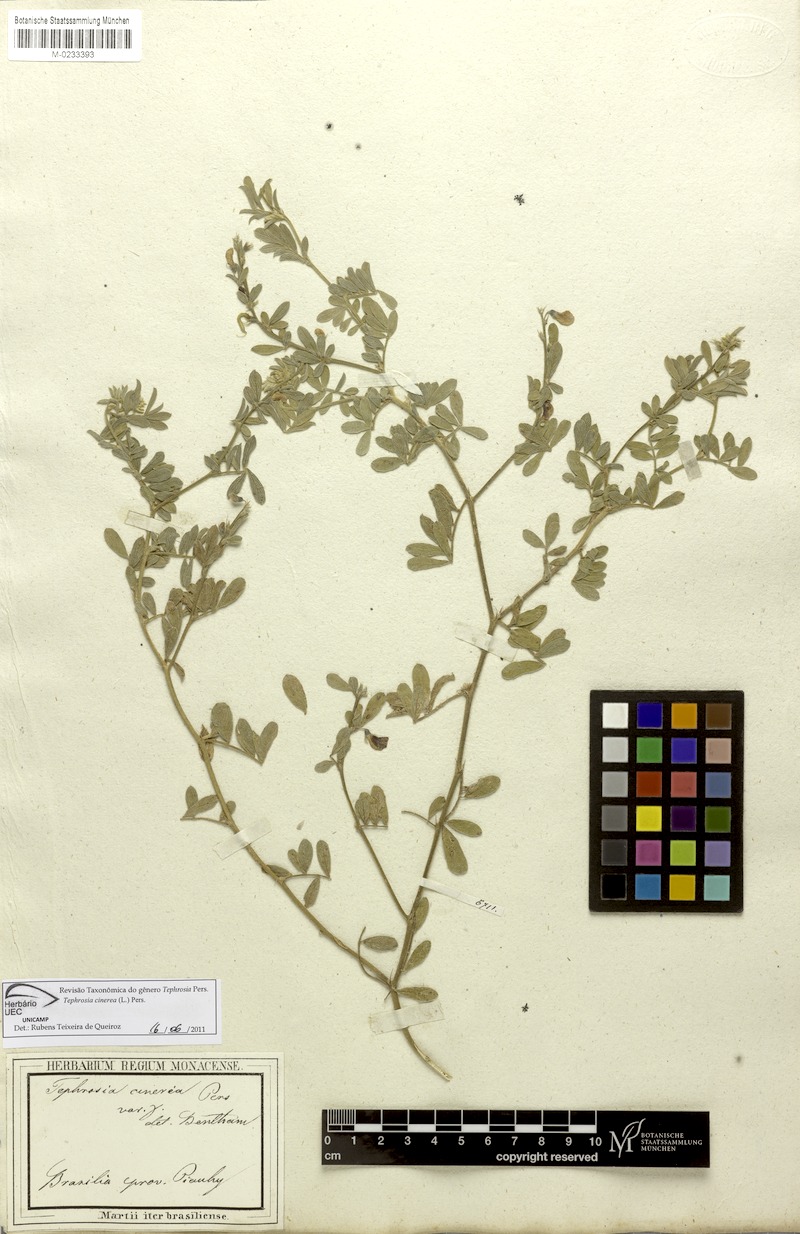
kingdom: Plantae
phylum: Tracheophyta
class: Magnoliopsida
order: Fabales
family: Fabaceae
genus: Tephrosia
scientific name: Tephrosia cinerea
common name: Ashen hoarypea
